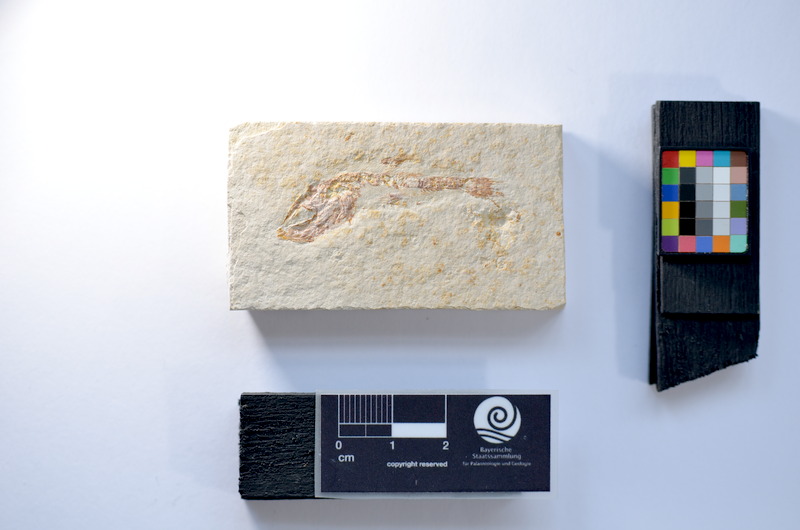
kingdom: Animalia
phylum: Chordata
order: Salmoniformes
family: Orthogonikleithridae
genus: Leptolepides
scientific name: Leptolepides
